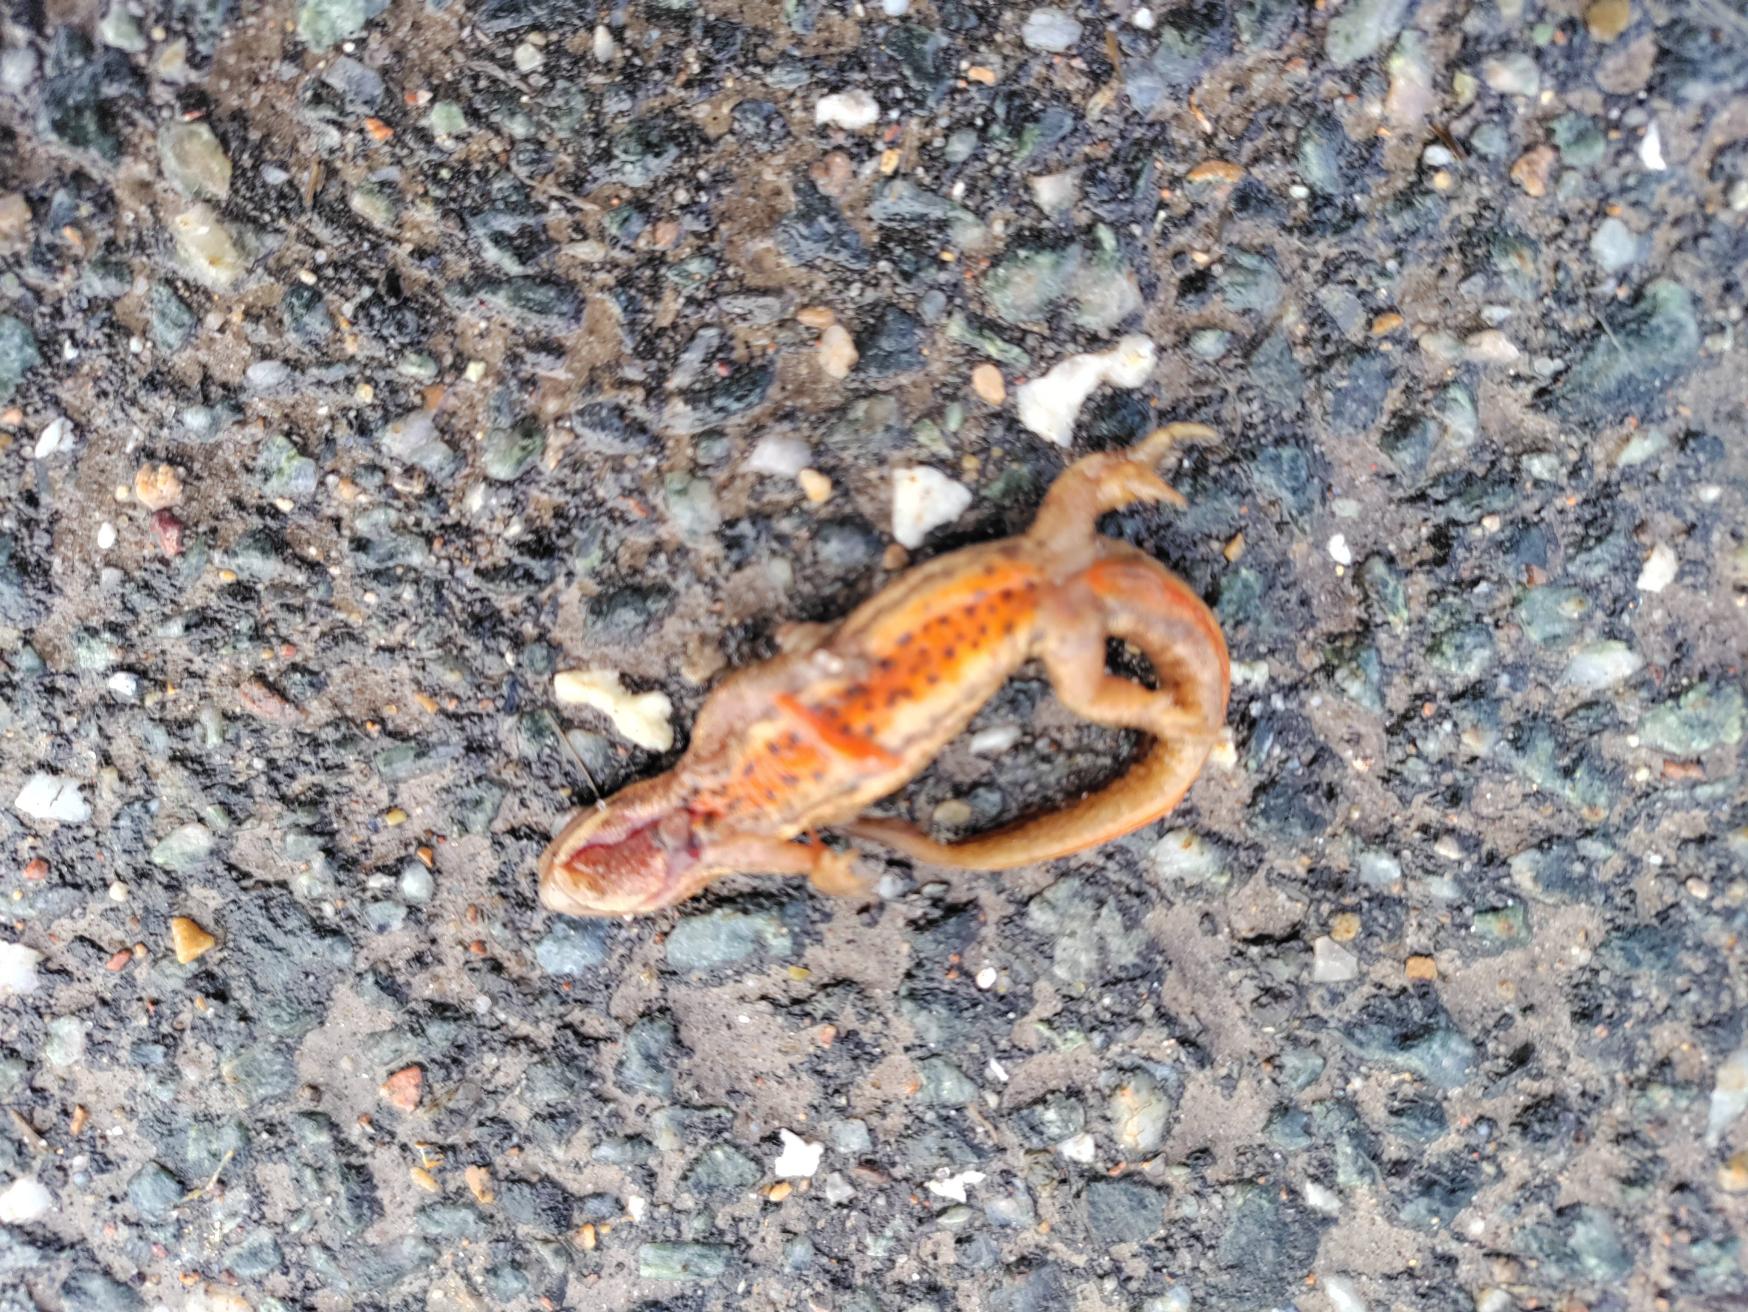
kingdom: Animalia
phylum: Chordata
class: Amphibia
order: Caudata
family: Salamandridae
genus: Lissotriton
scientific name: Lissotriton vulgaris
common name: Lille vandsalamander
